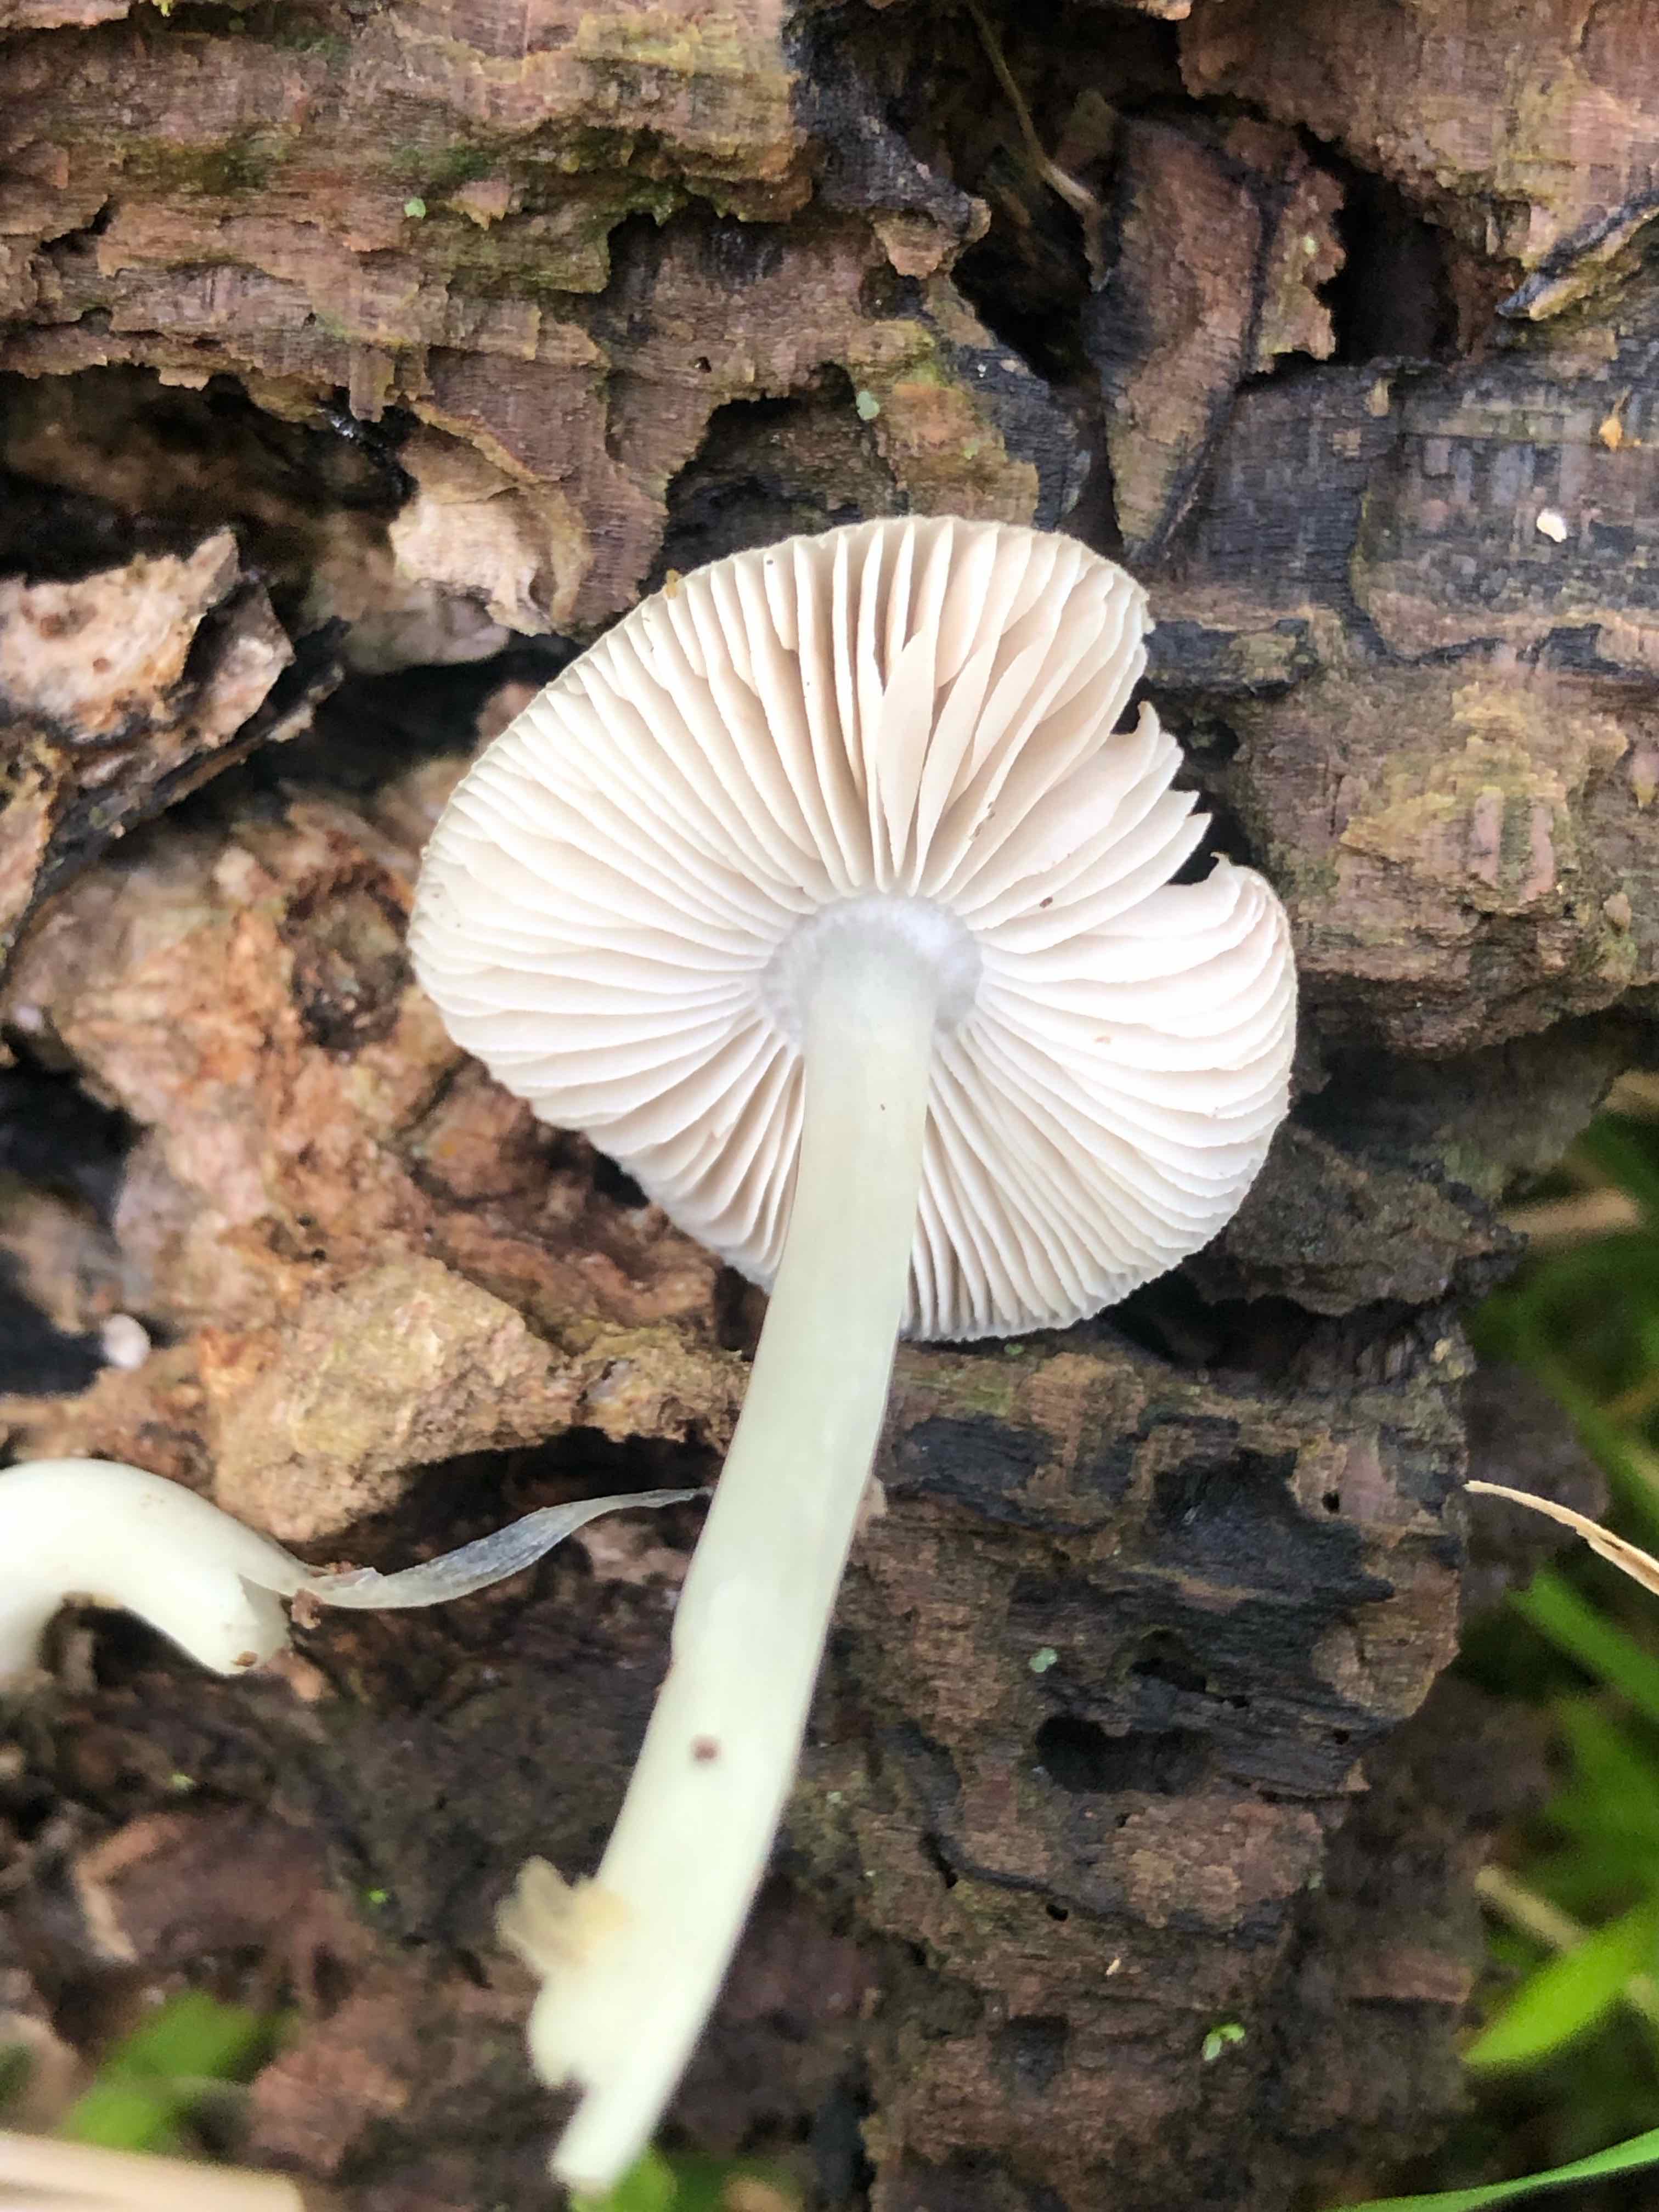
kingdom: Fungi
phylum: Basidiomycota
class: Agaricomycetes
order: Agaricales
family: Pluteaceae
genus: Pluteus
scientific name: Pluteus salicinus
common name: stiv skærmhat
